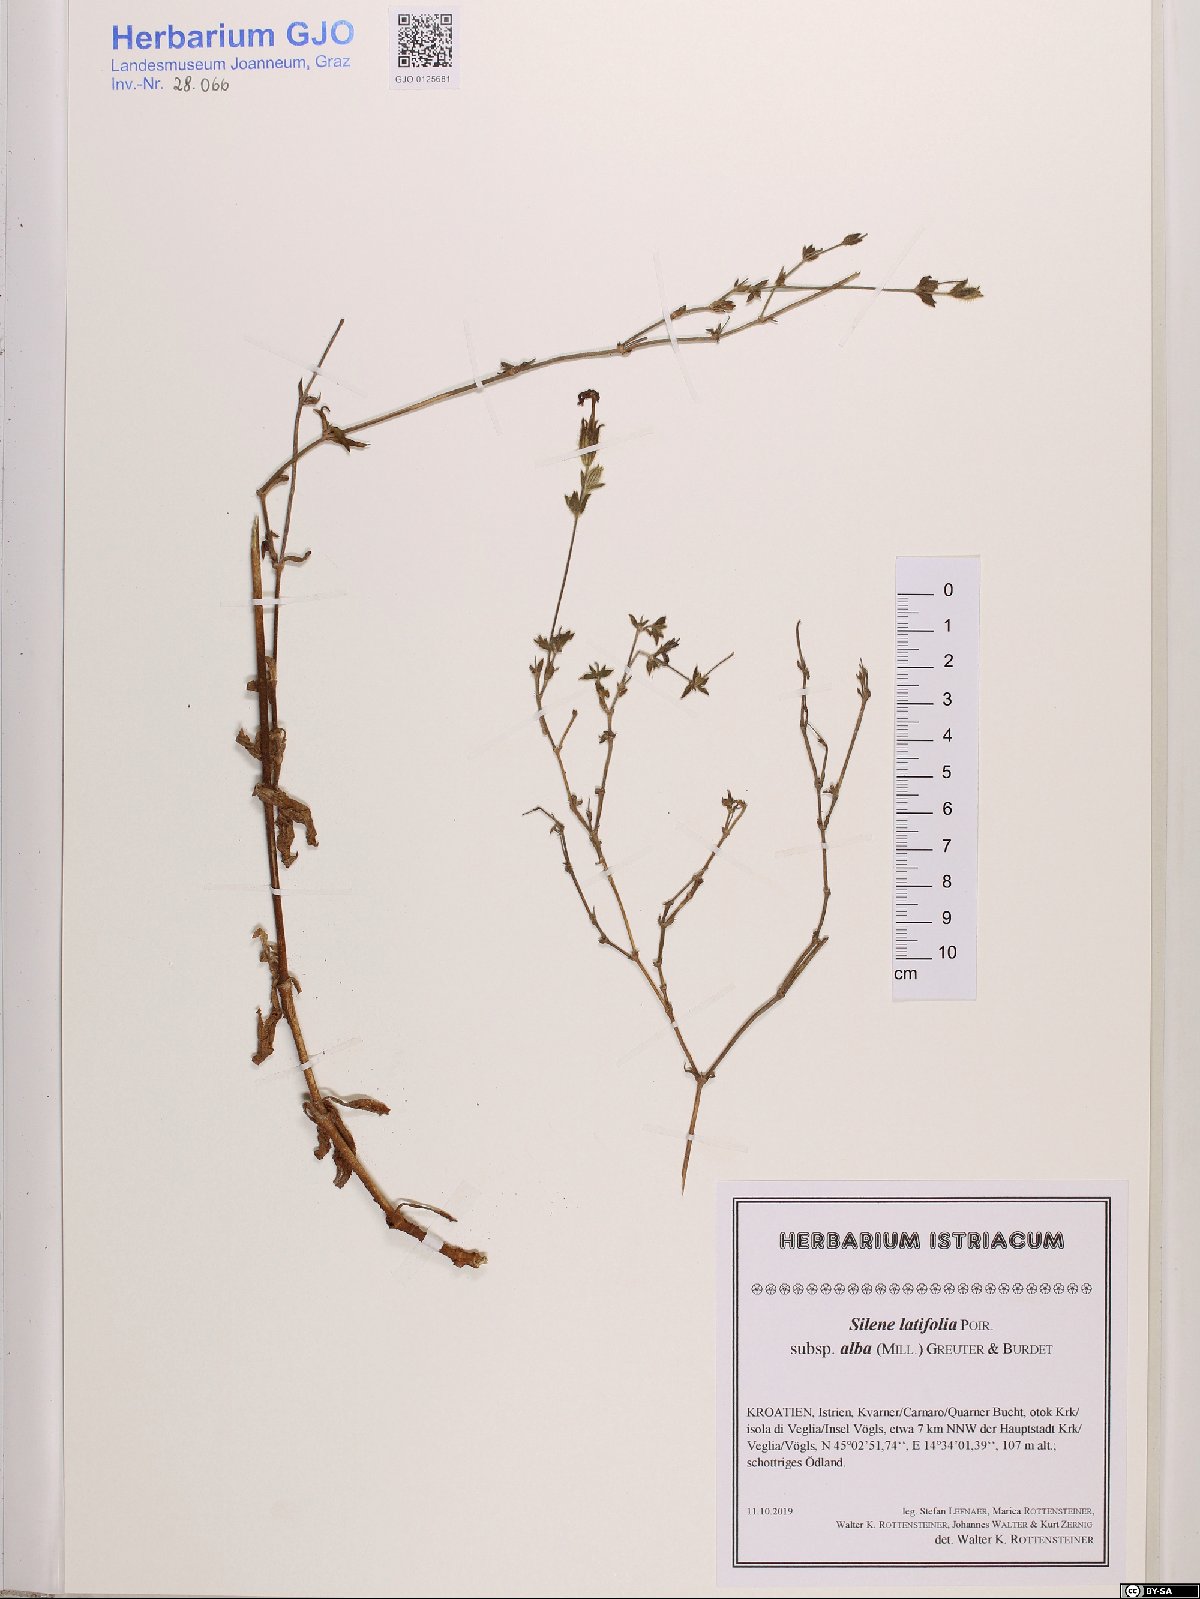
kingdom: Plantae
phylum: Tracheophyta
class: Magnoliopsida
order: Caryophyllales
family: Caryophyllaceae
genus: Silene
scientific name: Silene latifolia
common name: White campion
